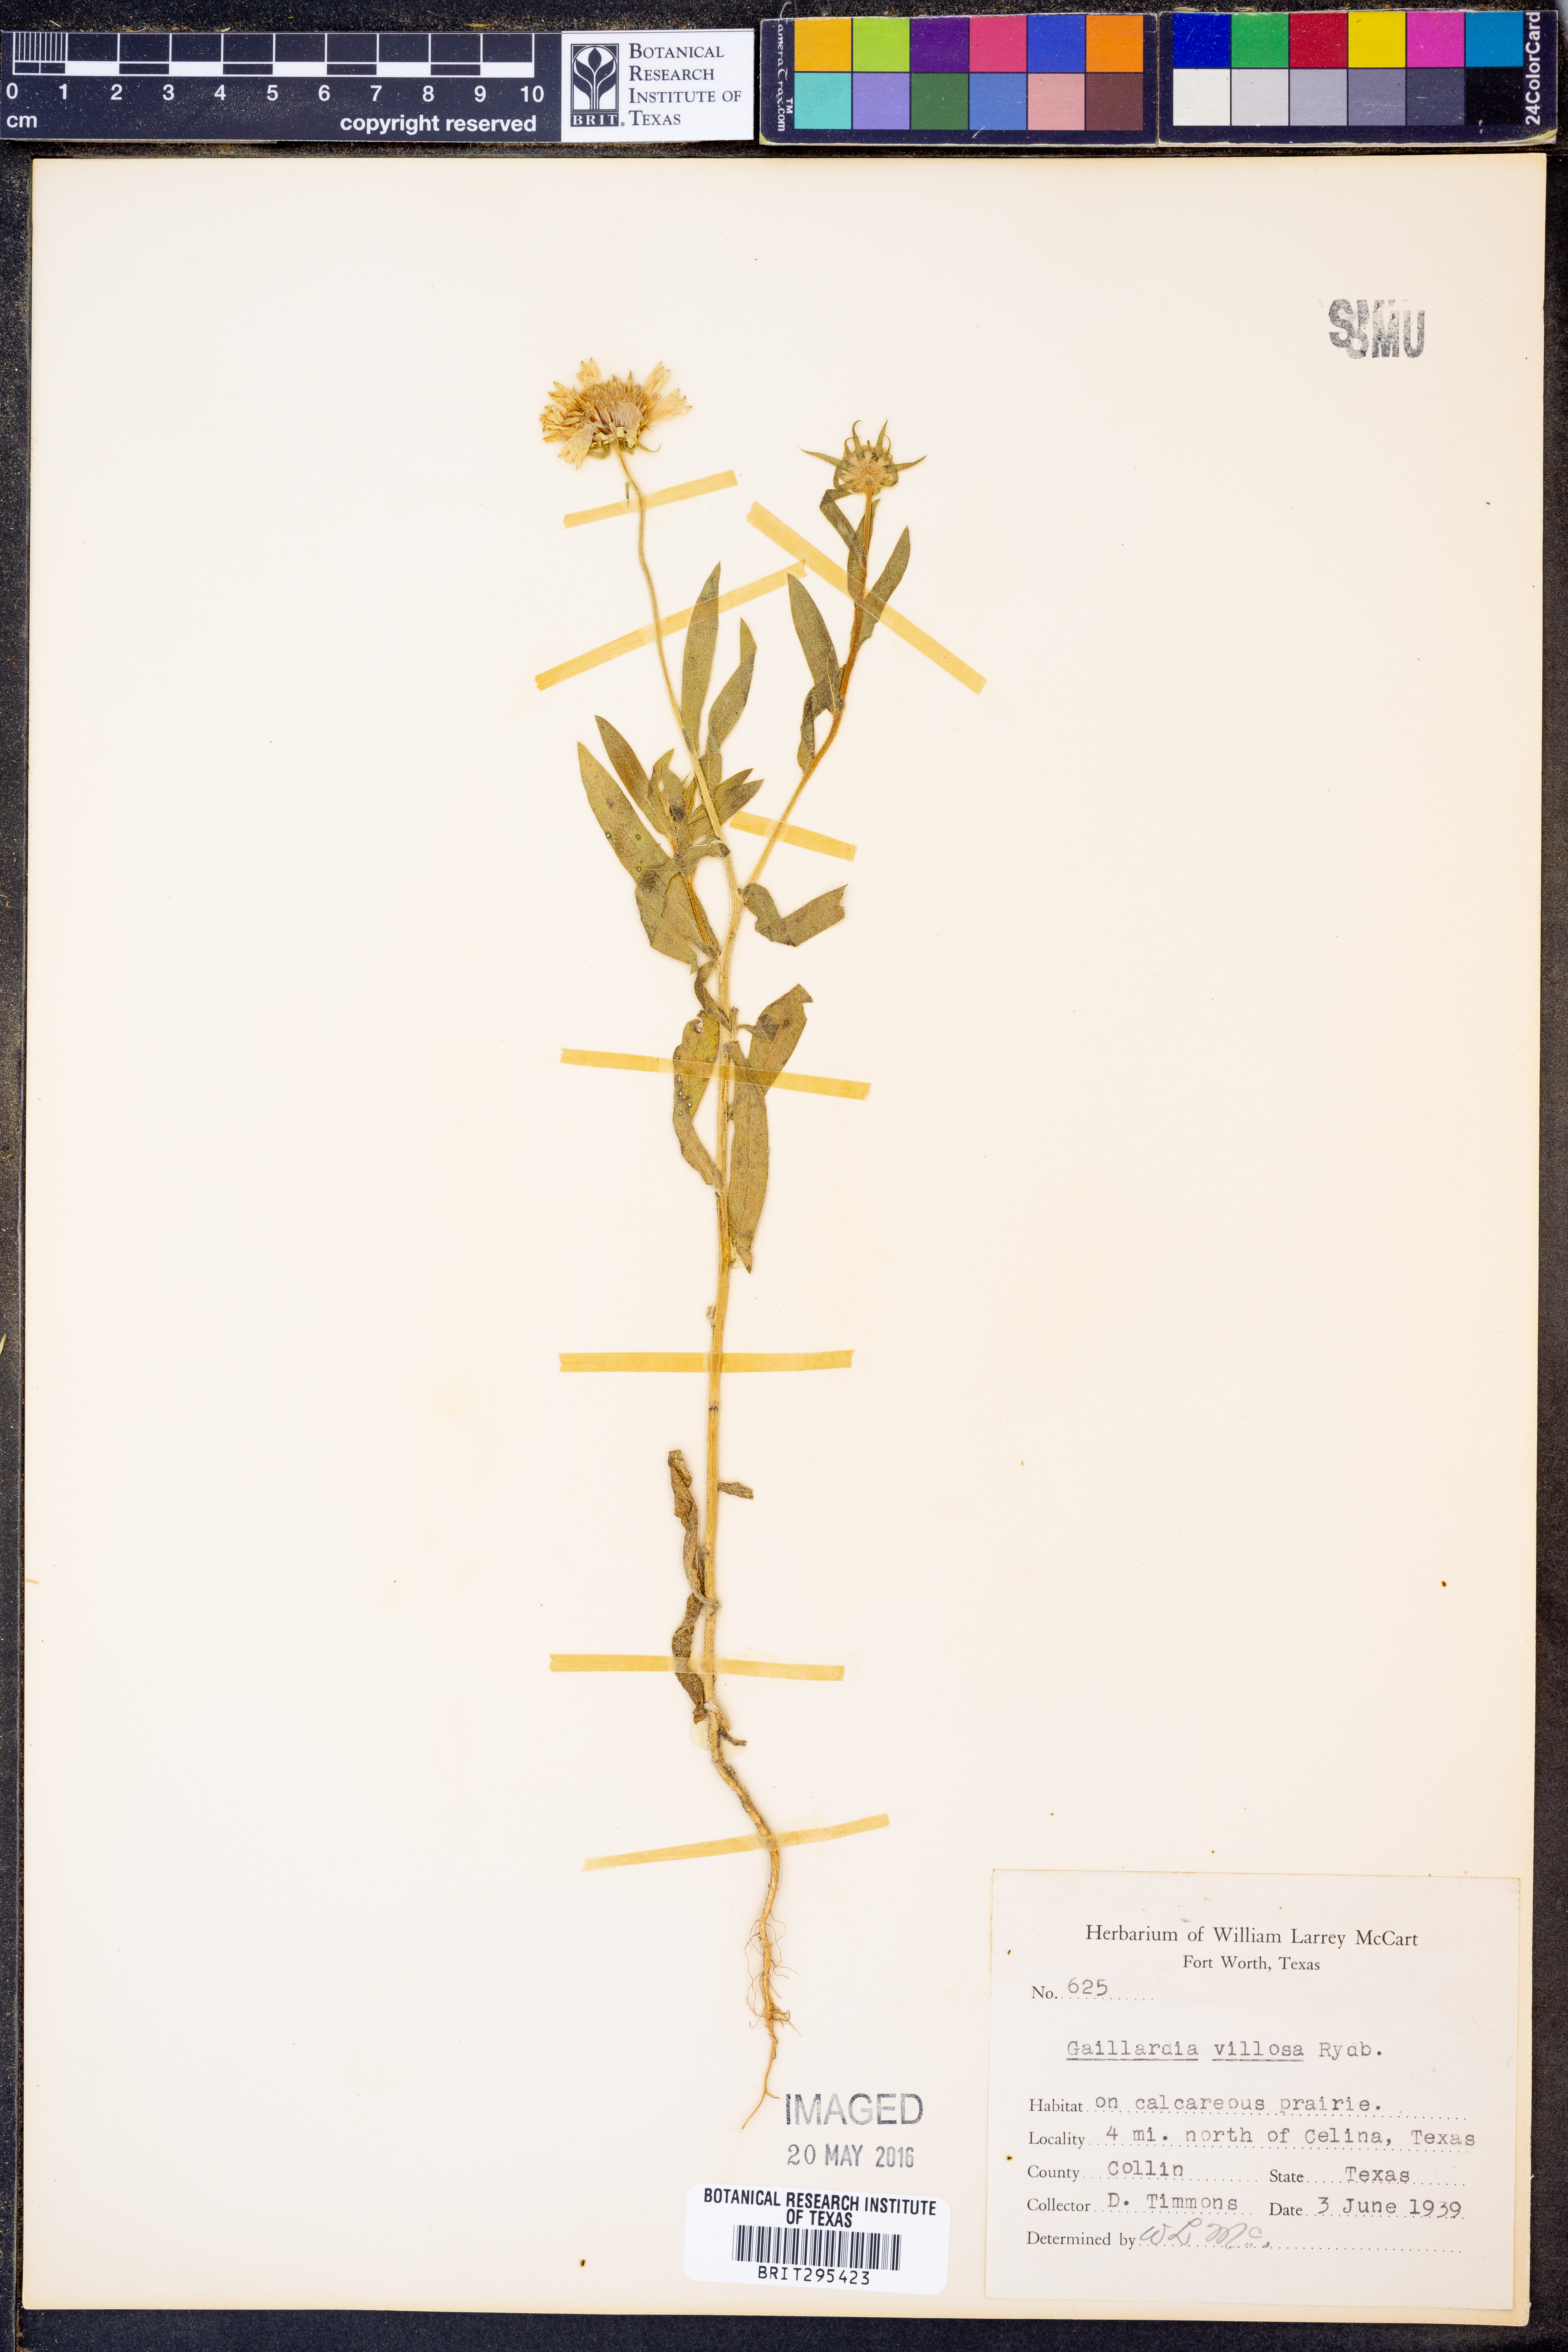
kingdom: Plantae
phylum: Tracheophyta
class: Magnoliopsida
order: Asterales
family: Asteraceae
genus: Gaillardia
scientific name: Gaillardia pulchella
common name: Firewheel
